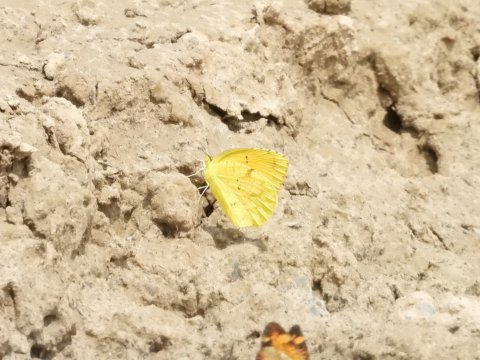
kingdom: Animalia
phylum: Arthropoda
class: Insecta
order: Lepidoptera
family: Pieridae
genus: Abaeis
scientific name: Abaeis nicippe
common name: Sleepy Orange
